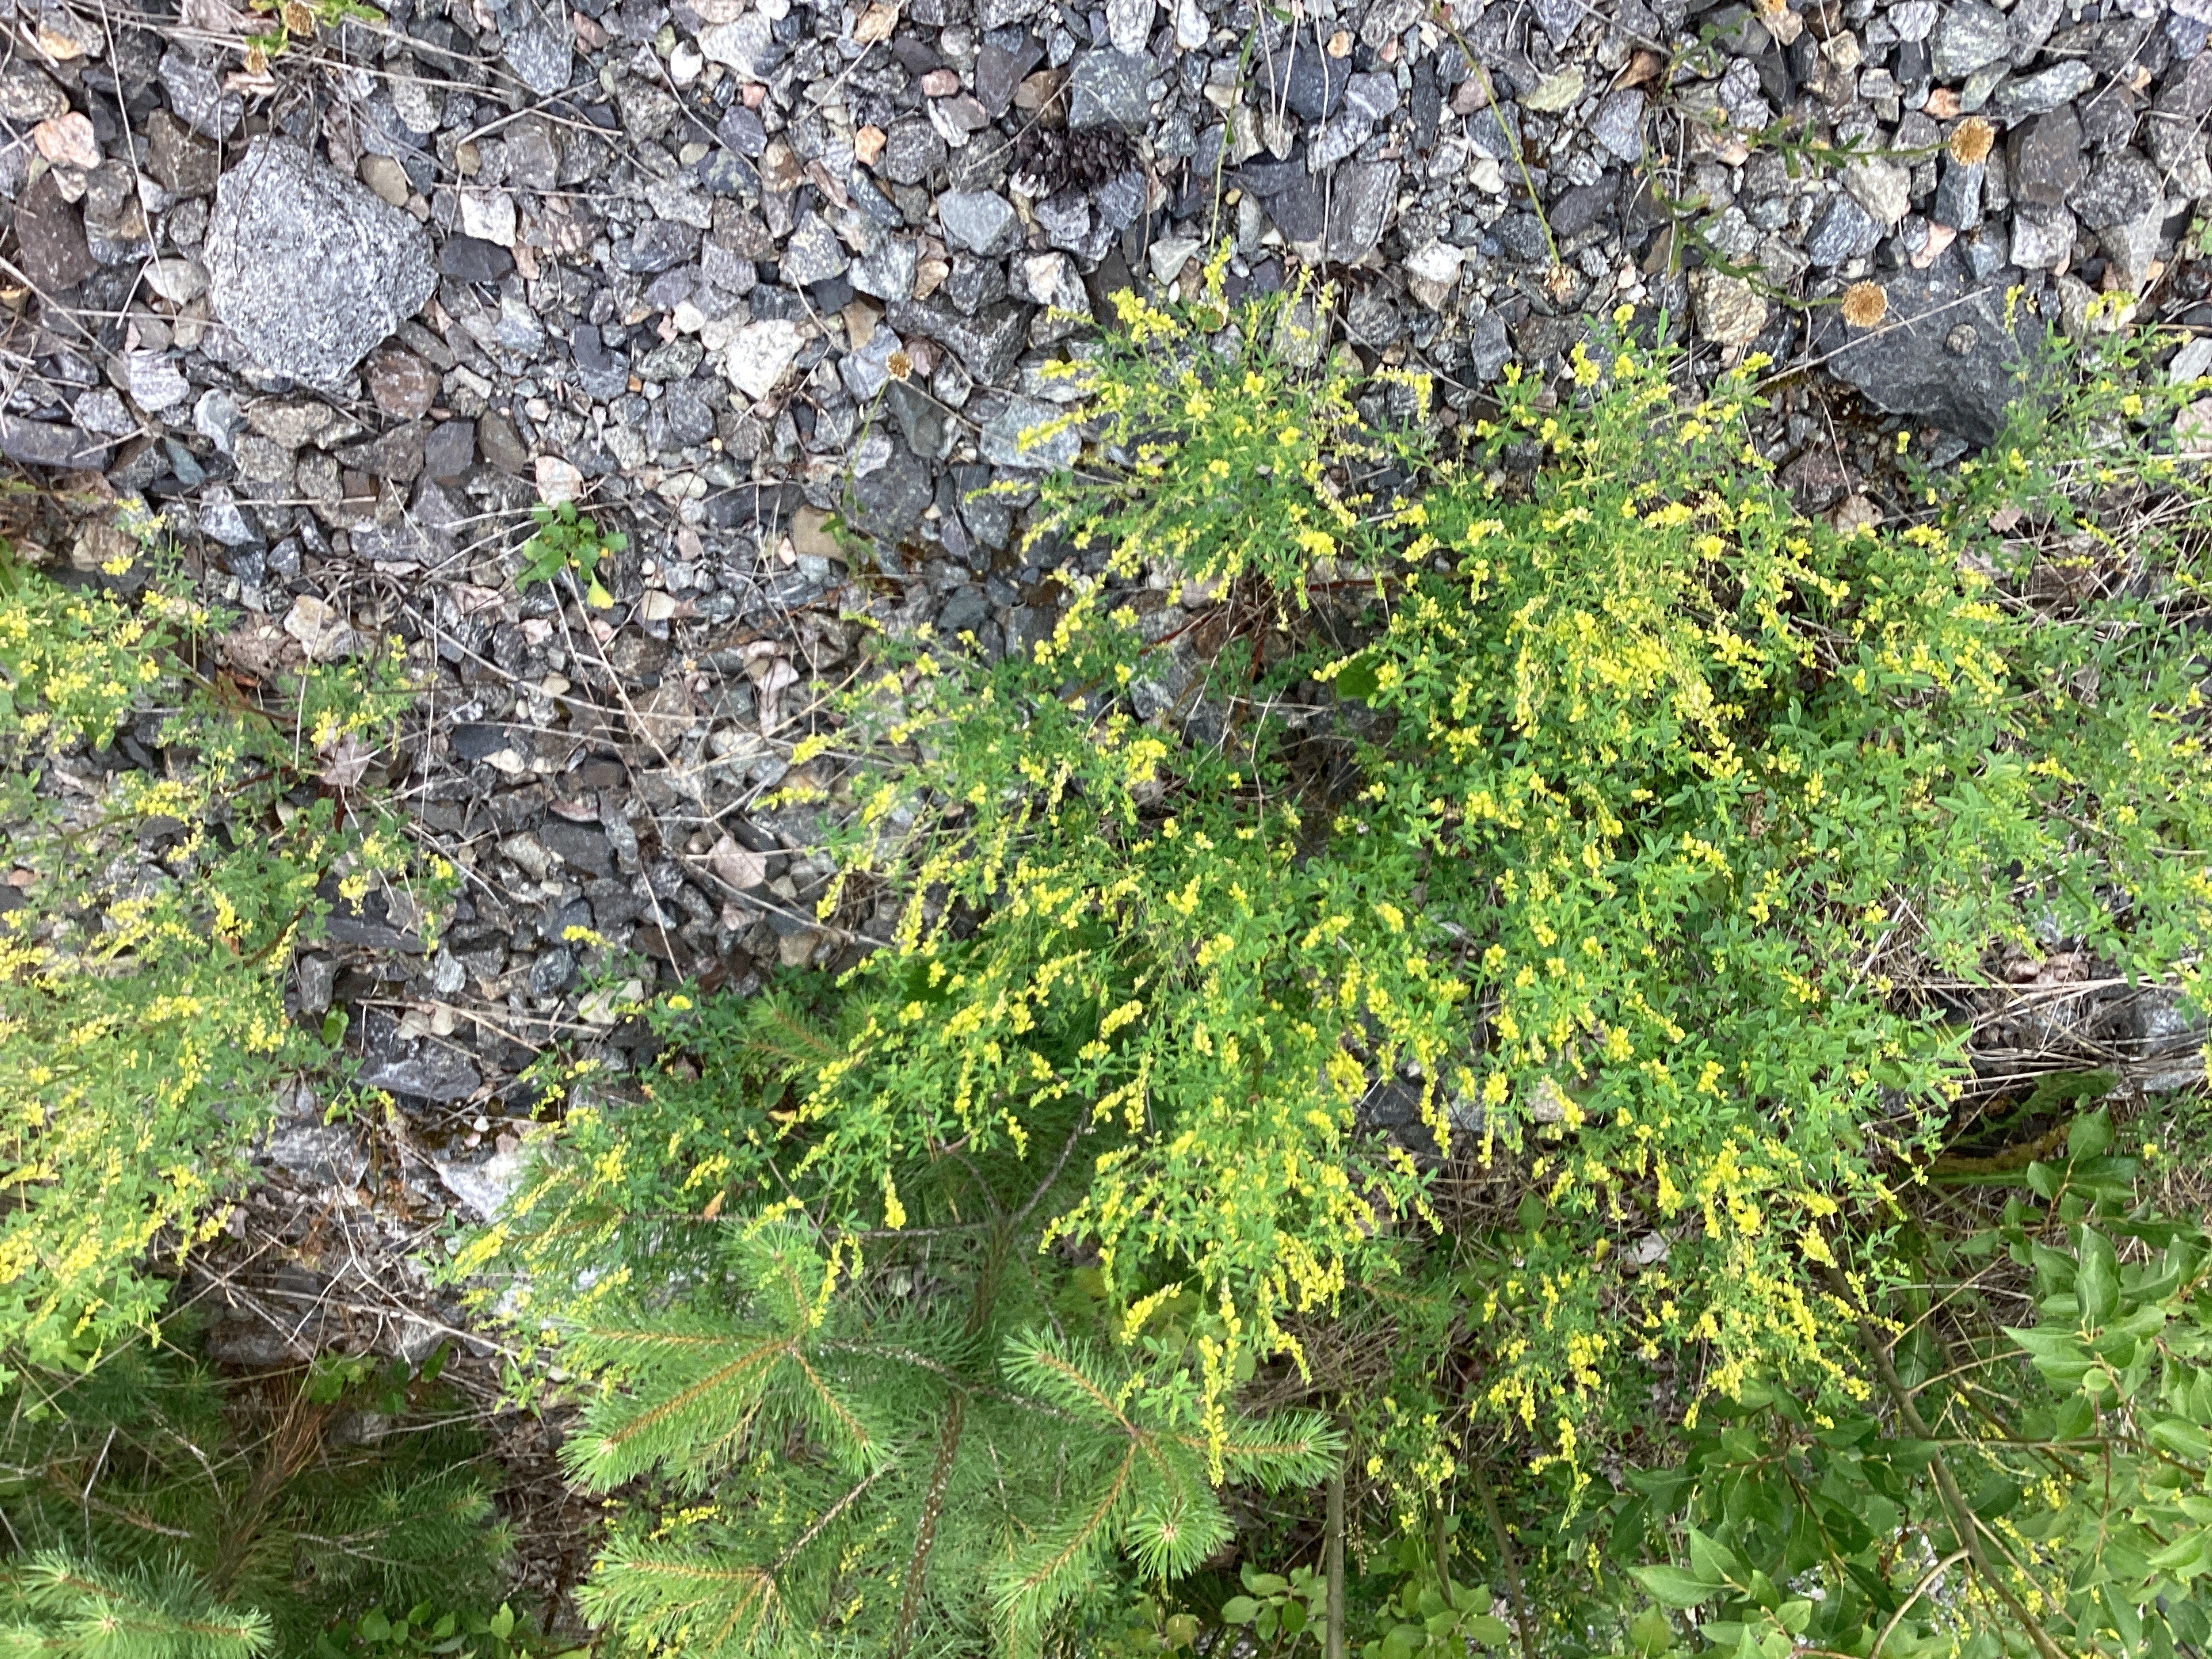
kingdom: Plantae
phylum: Tracheophyta
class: Magnoliopsida
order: Fabales
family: Fabaceae
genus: Melilotus
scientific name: Melilotus officinalis
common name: legesteinkløver
